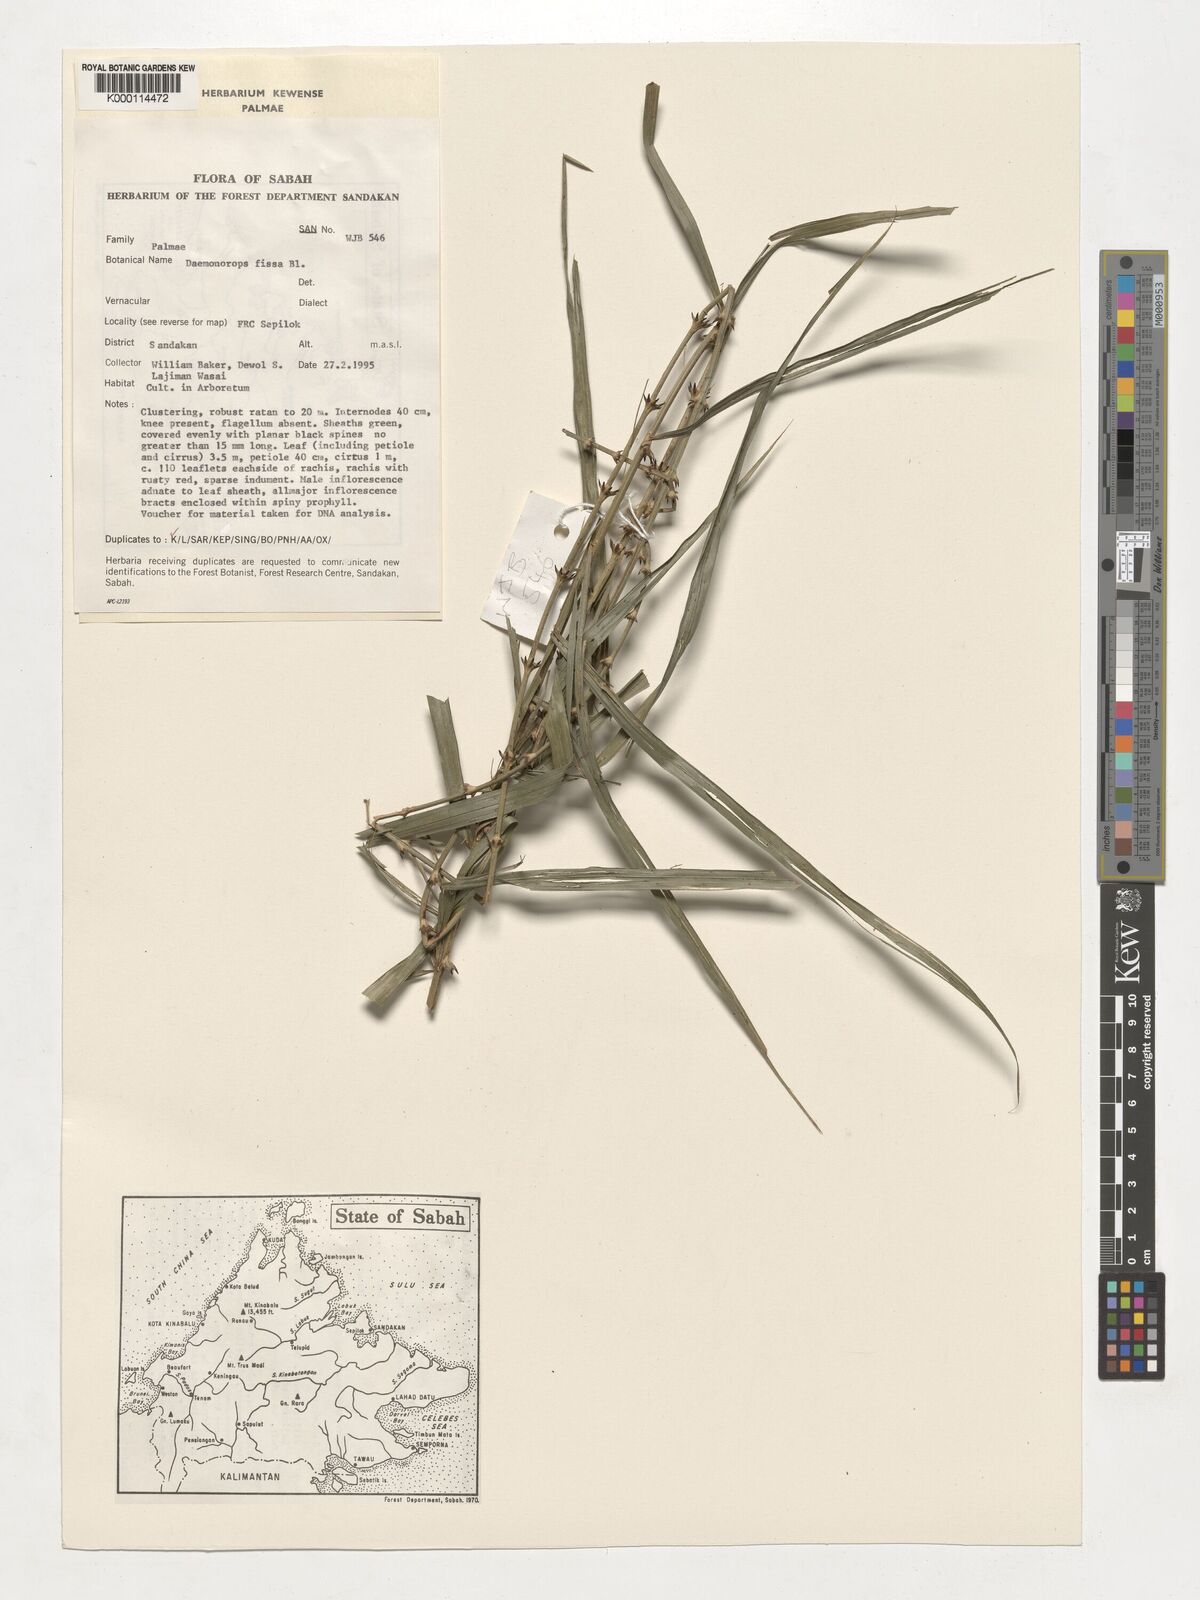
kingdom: Plantae
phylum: Tracheophyta
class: Liliopsida
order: Arecales
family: Arecaceae
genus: Calamus
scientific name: Calamus melanochaetes
